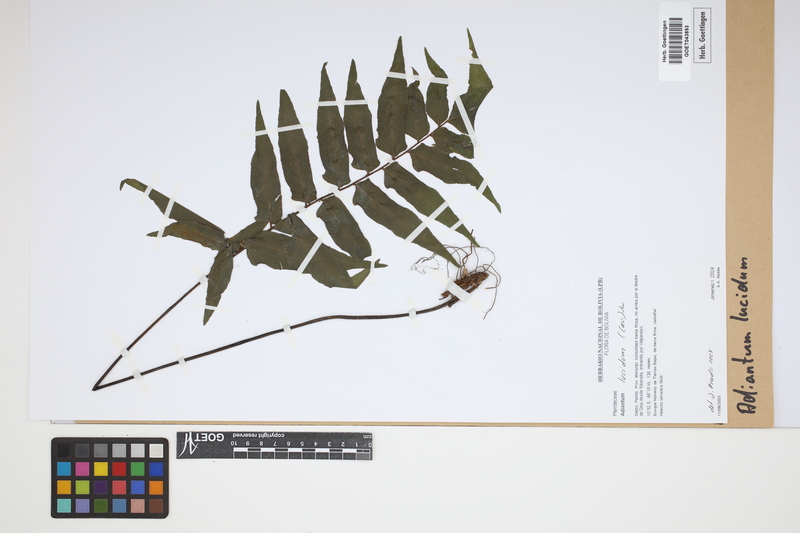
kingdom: Plantae
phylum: Tracheophyta
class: Polypodiopsida
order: Polypodiales
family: Pteridaceae
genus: Adiantum
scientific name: Adiantum lucidum
